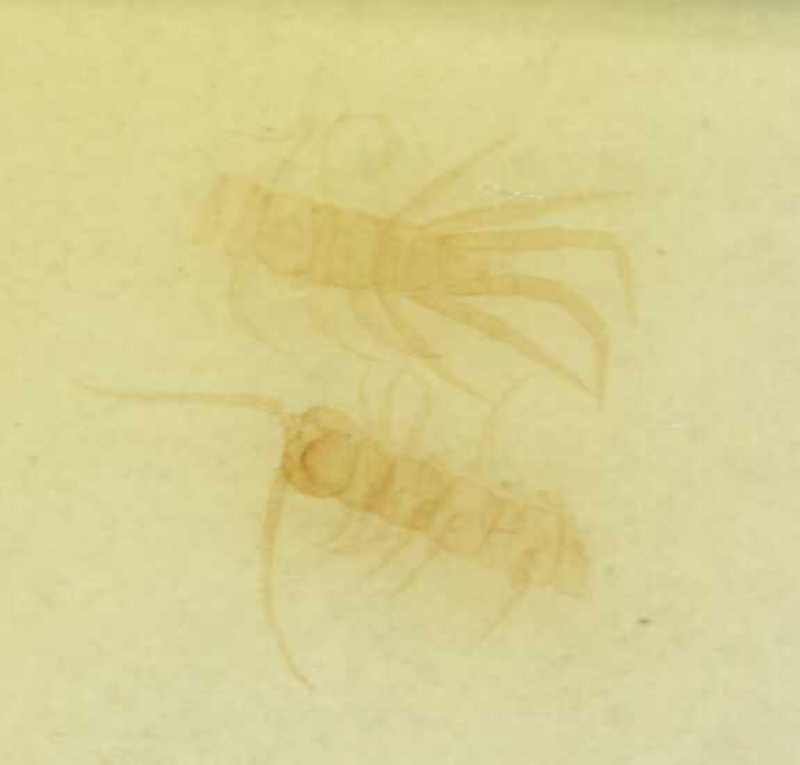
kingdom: Animalia
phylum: Arthropoda
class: Chilopoda
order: Lithobiomorpha
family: Lithobiidae
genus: Lithobius
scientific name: Lithobius erythrocephalus
